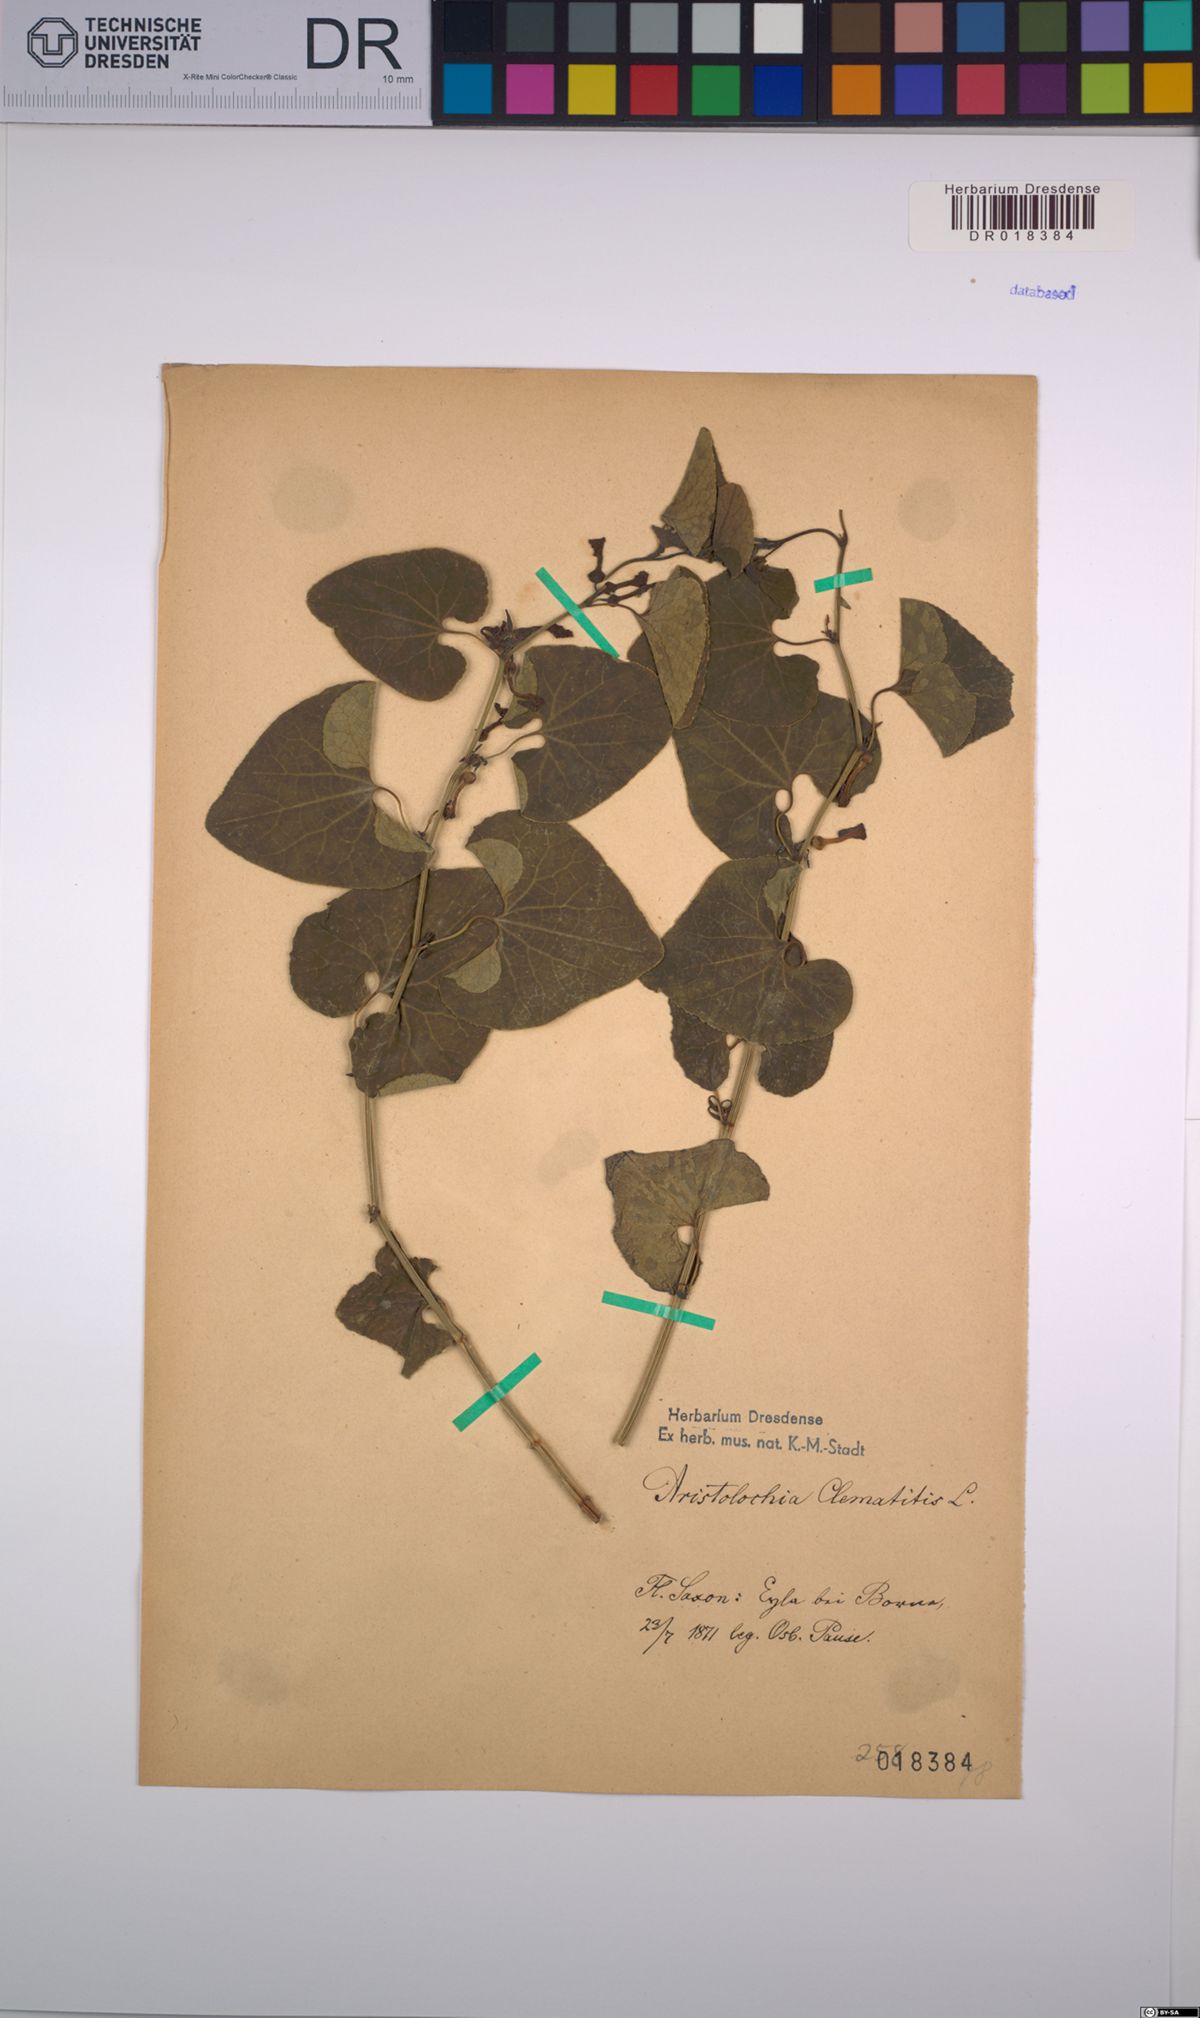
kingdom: Plantae
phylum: Tracheophyta
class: Magnoliopsida
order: Piperales
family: Aristolochiaceae
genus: Aristolochia
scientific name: Aristolochia clematitis
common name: Birthwort
